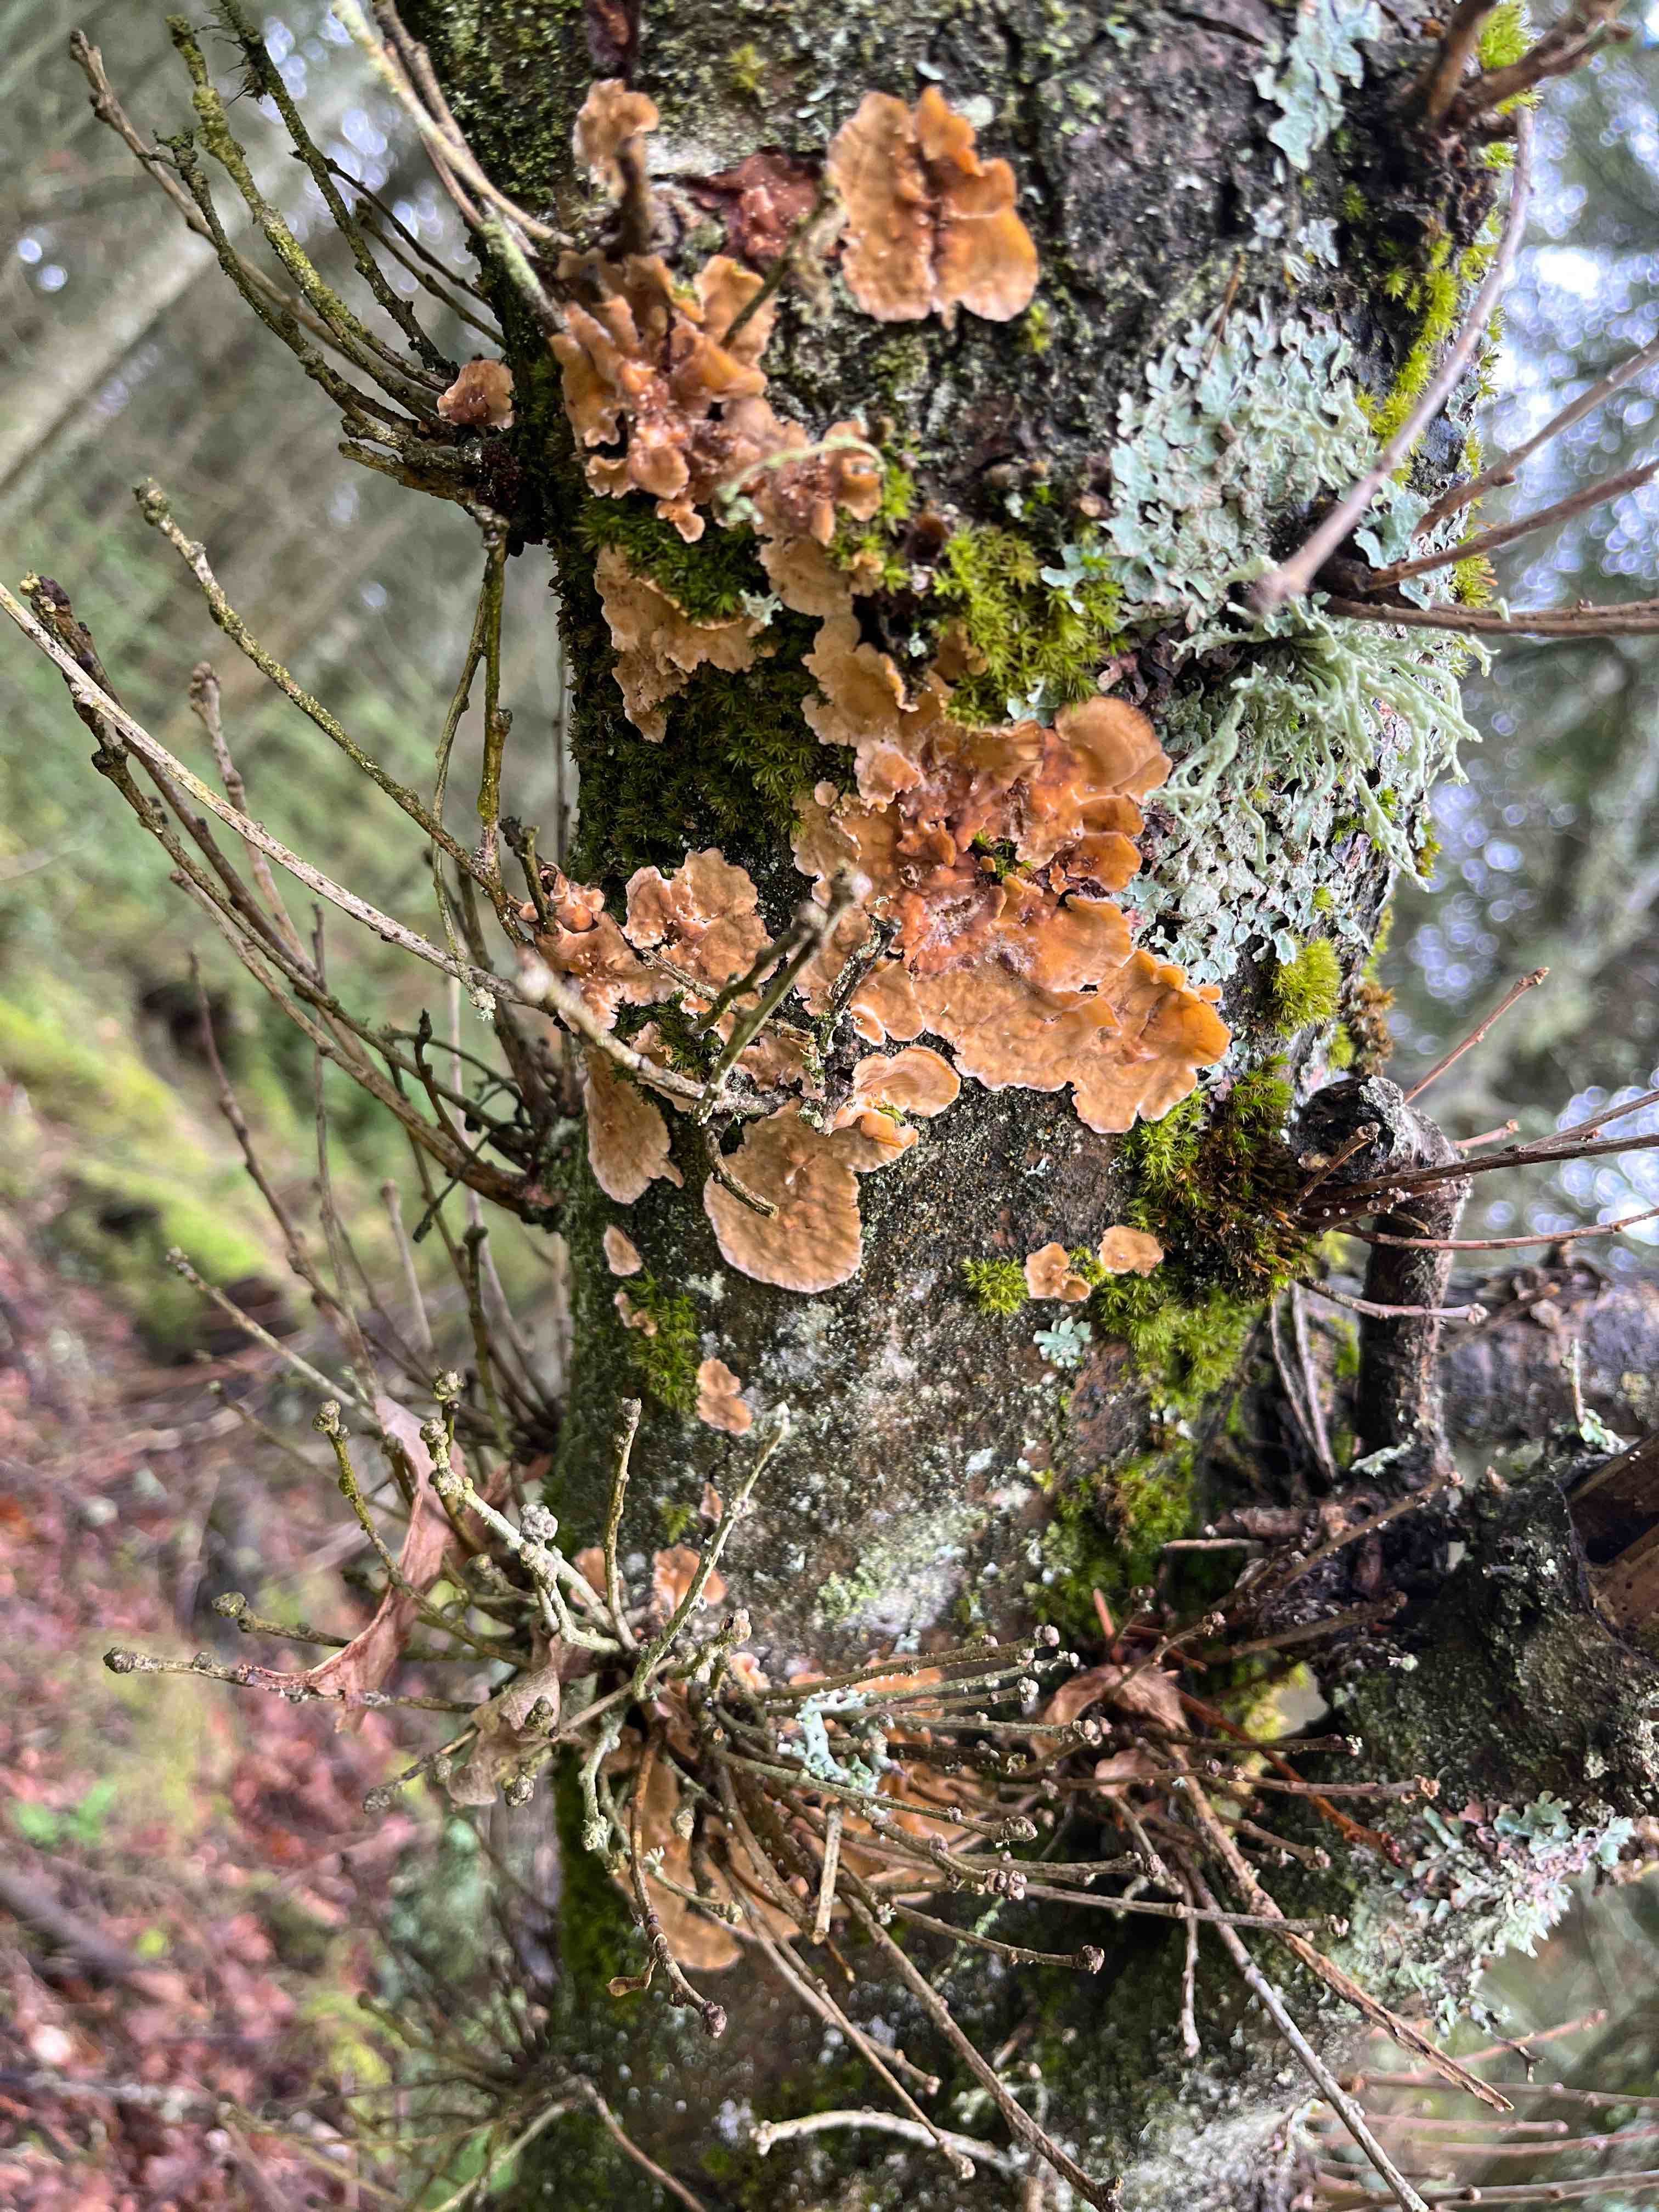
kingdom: Fungi
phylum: Basidiomycota
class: Agaricomycetes
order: Russulales
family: Stereaceae
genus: Stereum
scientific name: Stereum hirsutum
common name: håret lædersvamp
